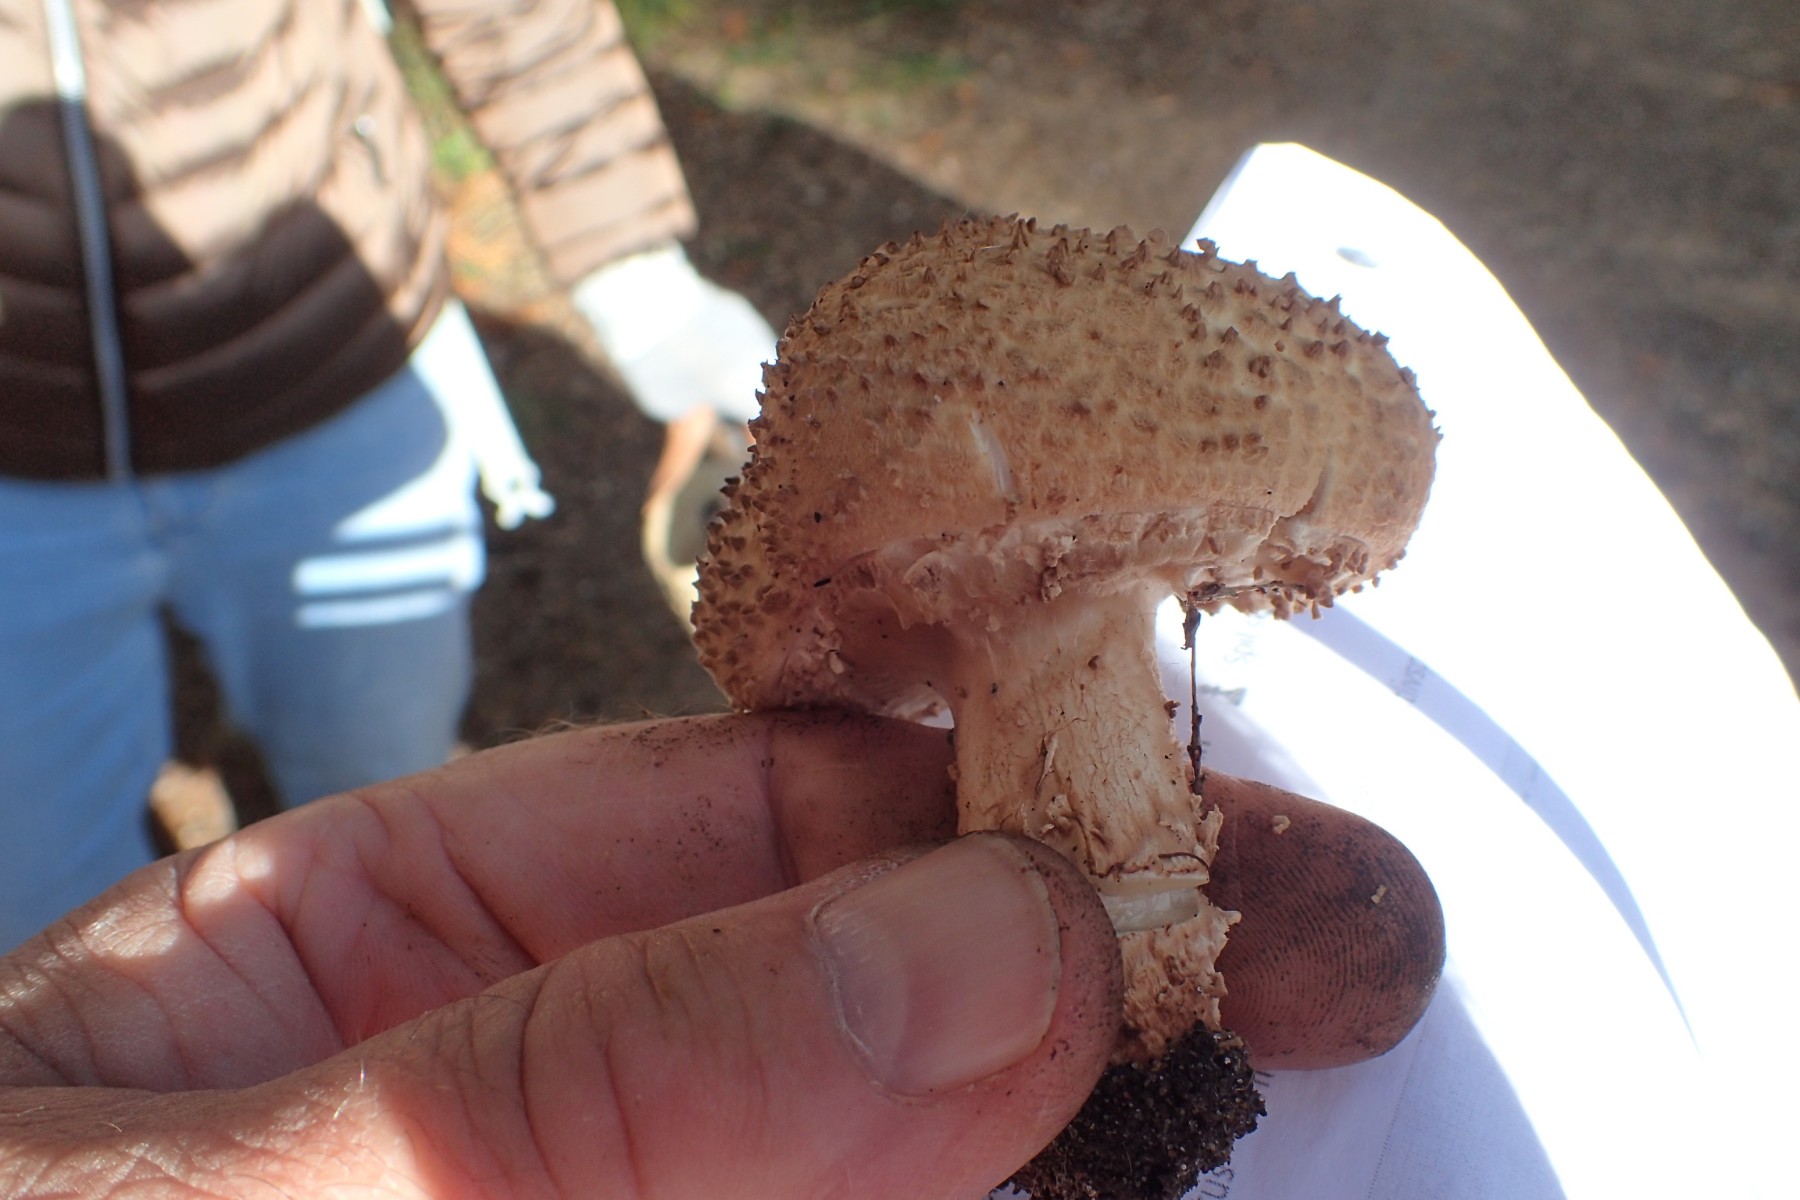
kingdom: Fungi
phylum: Basidiomycota
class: Agaricomycetes
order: Agaricales
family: Agaricaceae
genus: Echinoderma
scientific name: Echinoderma asperum
